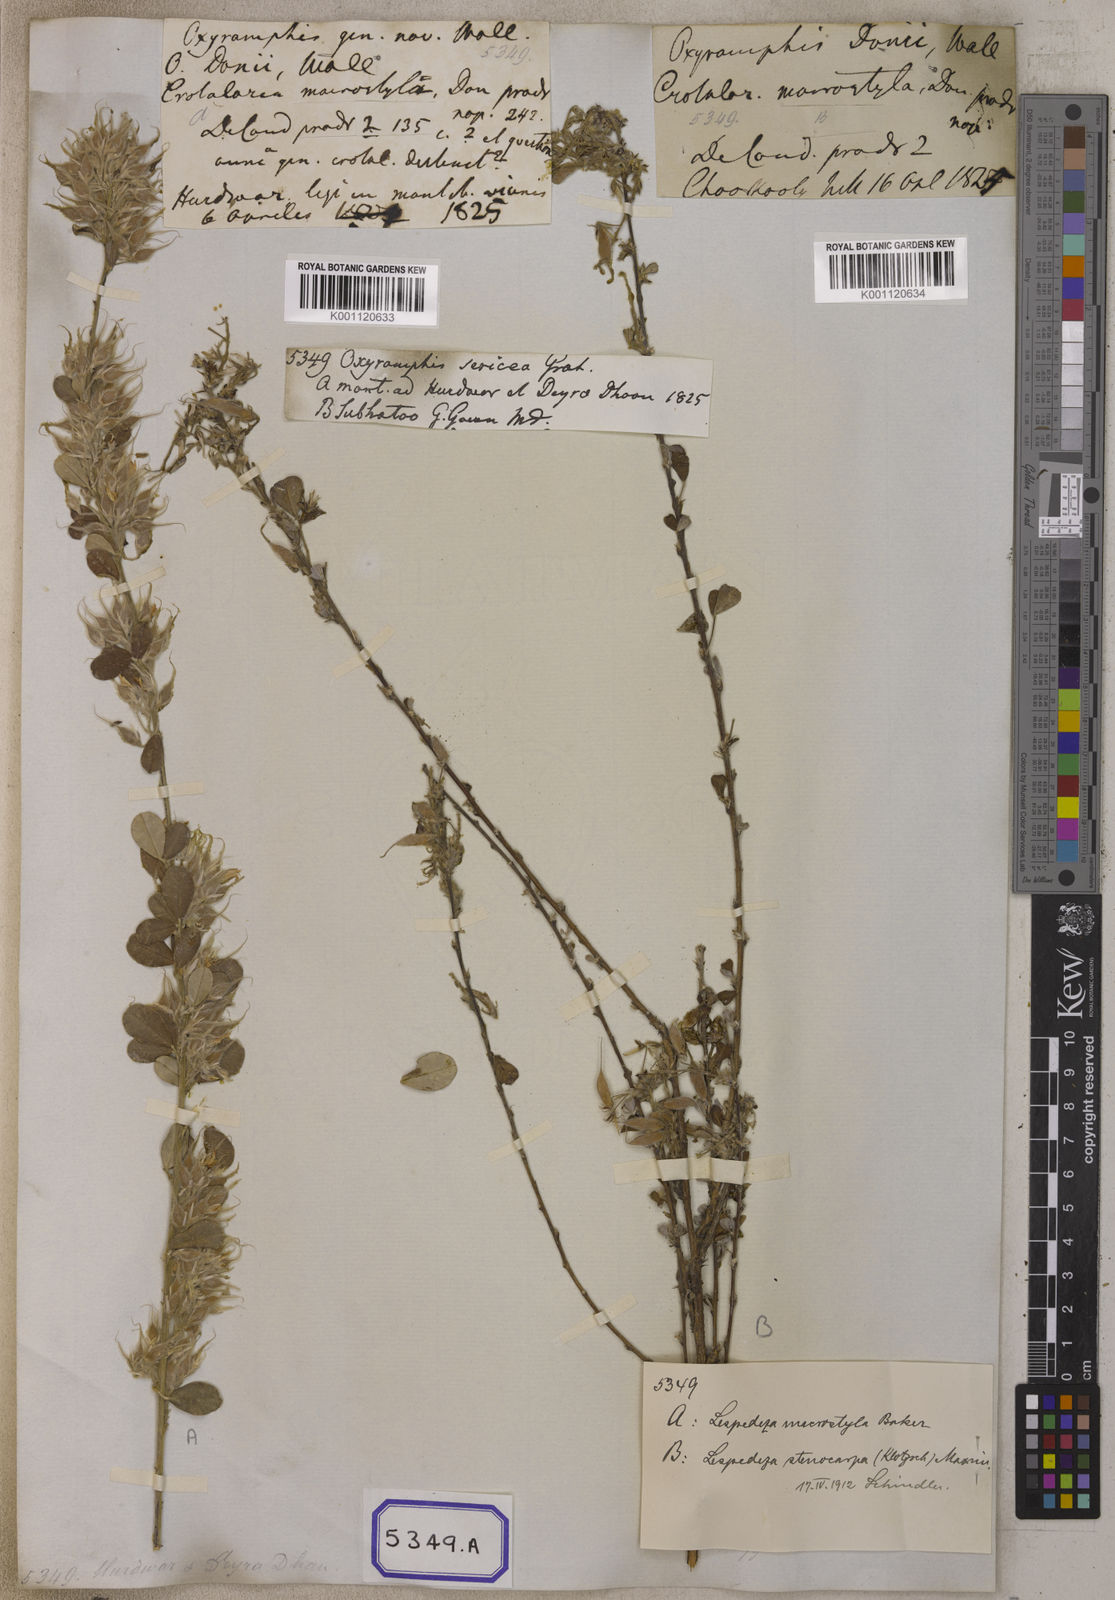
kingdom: Plantae
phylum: Tracheophyta
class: Magnoliopsida
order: Fabales
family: Fabaceae
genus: Campylotropis
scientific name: Campylotropis macrostyla
